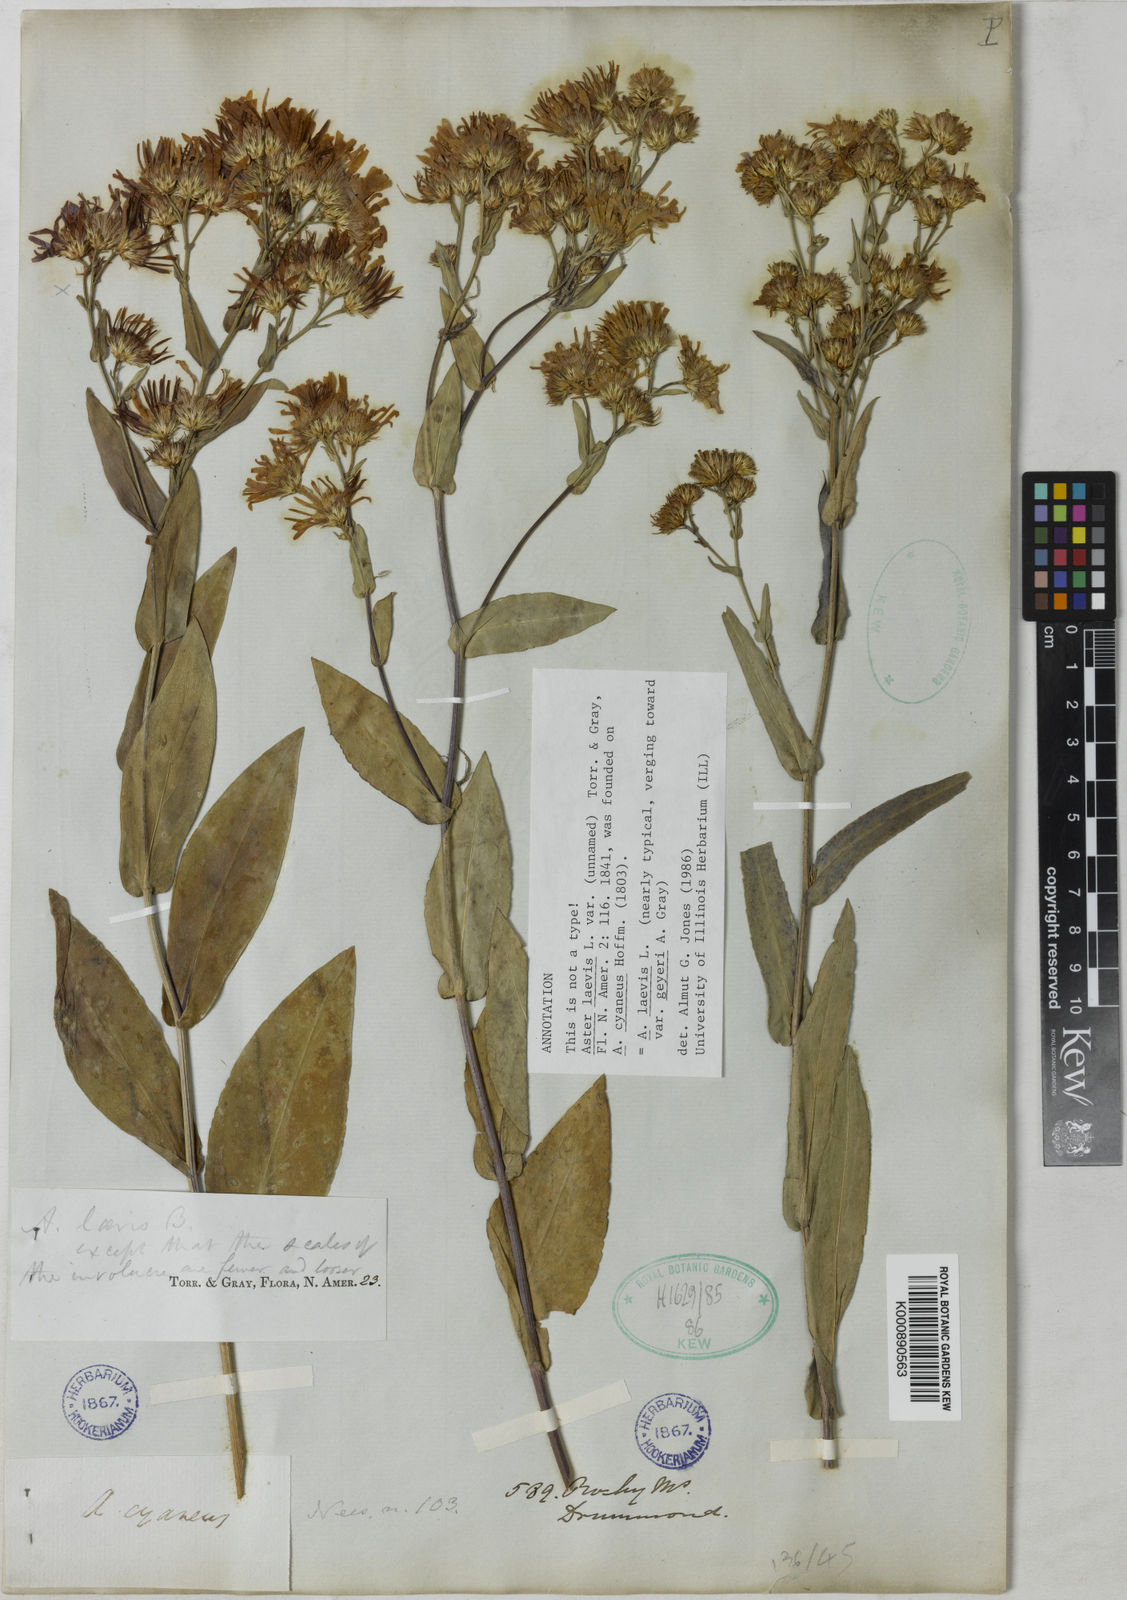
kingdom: Plantae
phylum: Tracheophyta
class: Magnoliopsida
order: Asterales
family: Asteraceae
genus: Symphyotrichum
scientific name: Symphyotrichum laeve
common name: Glaucous aster
